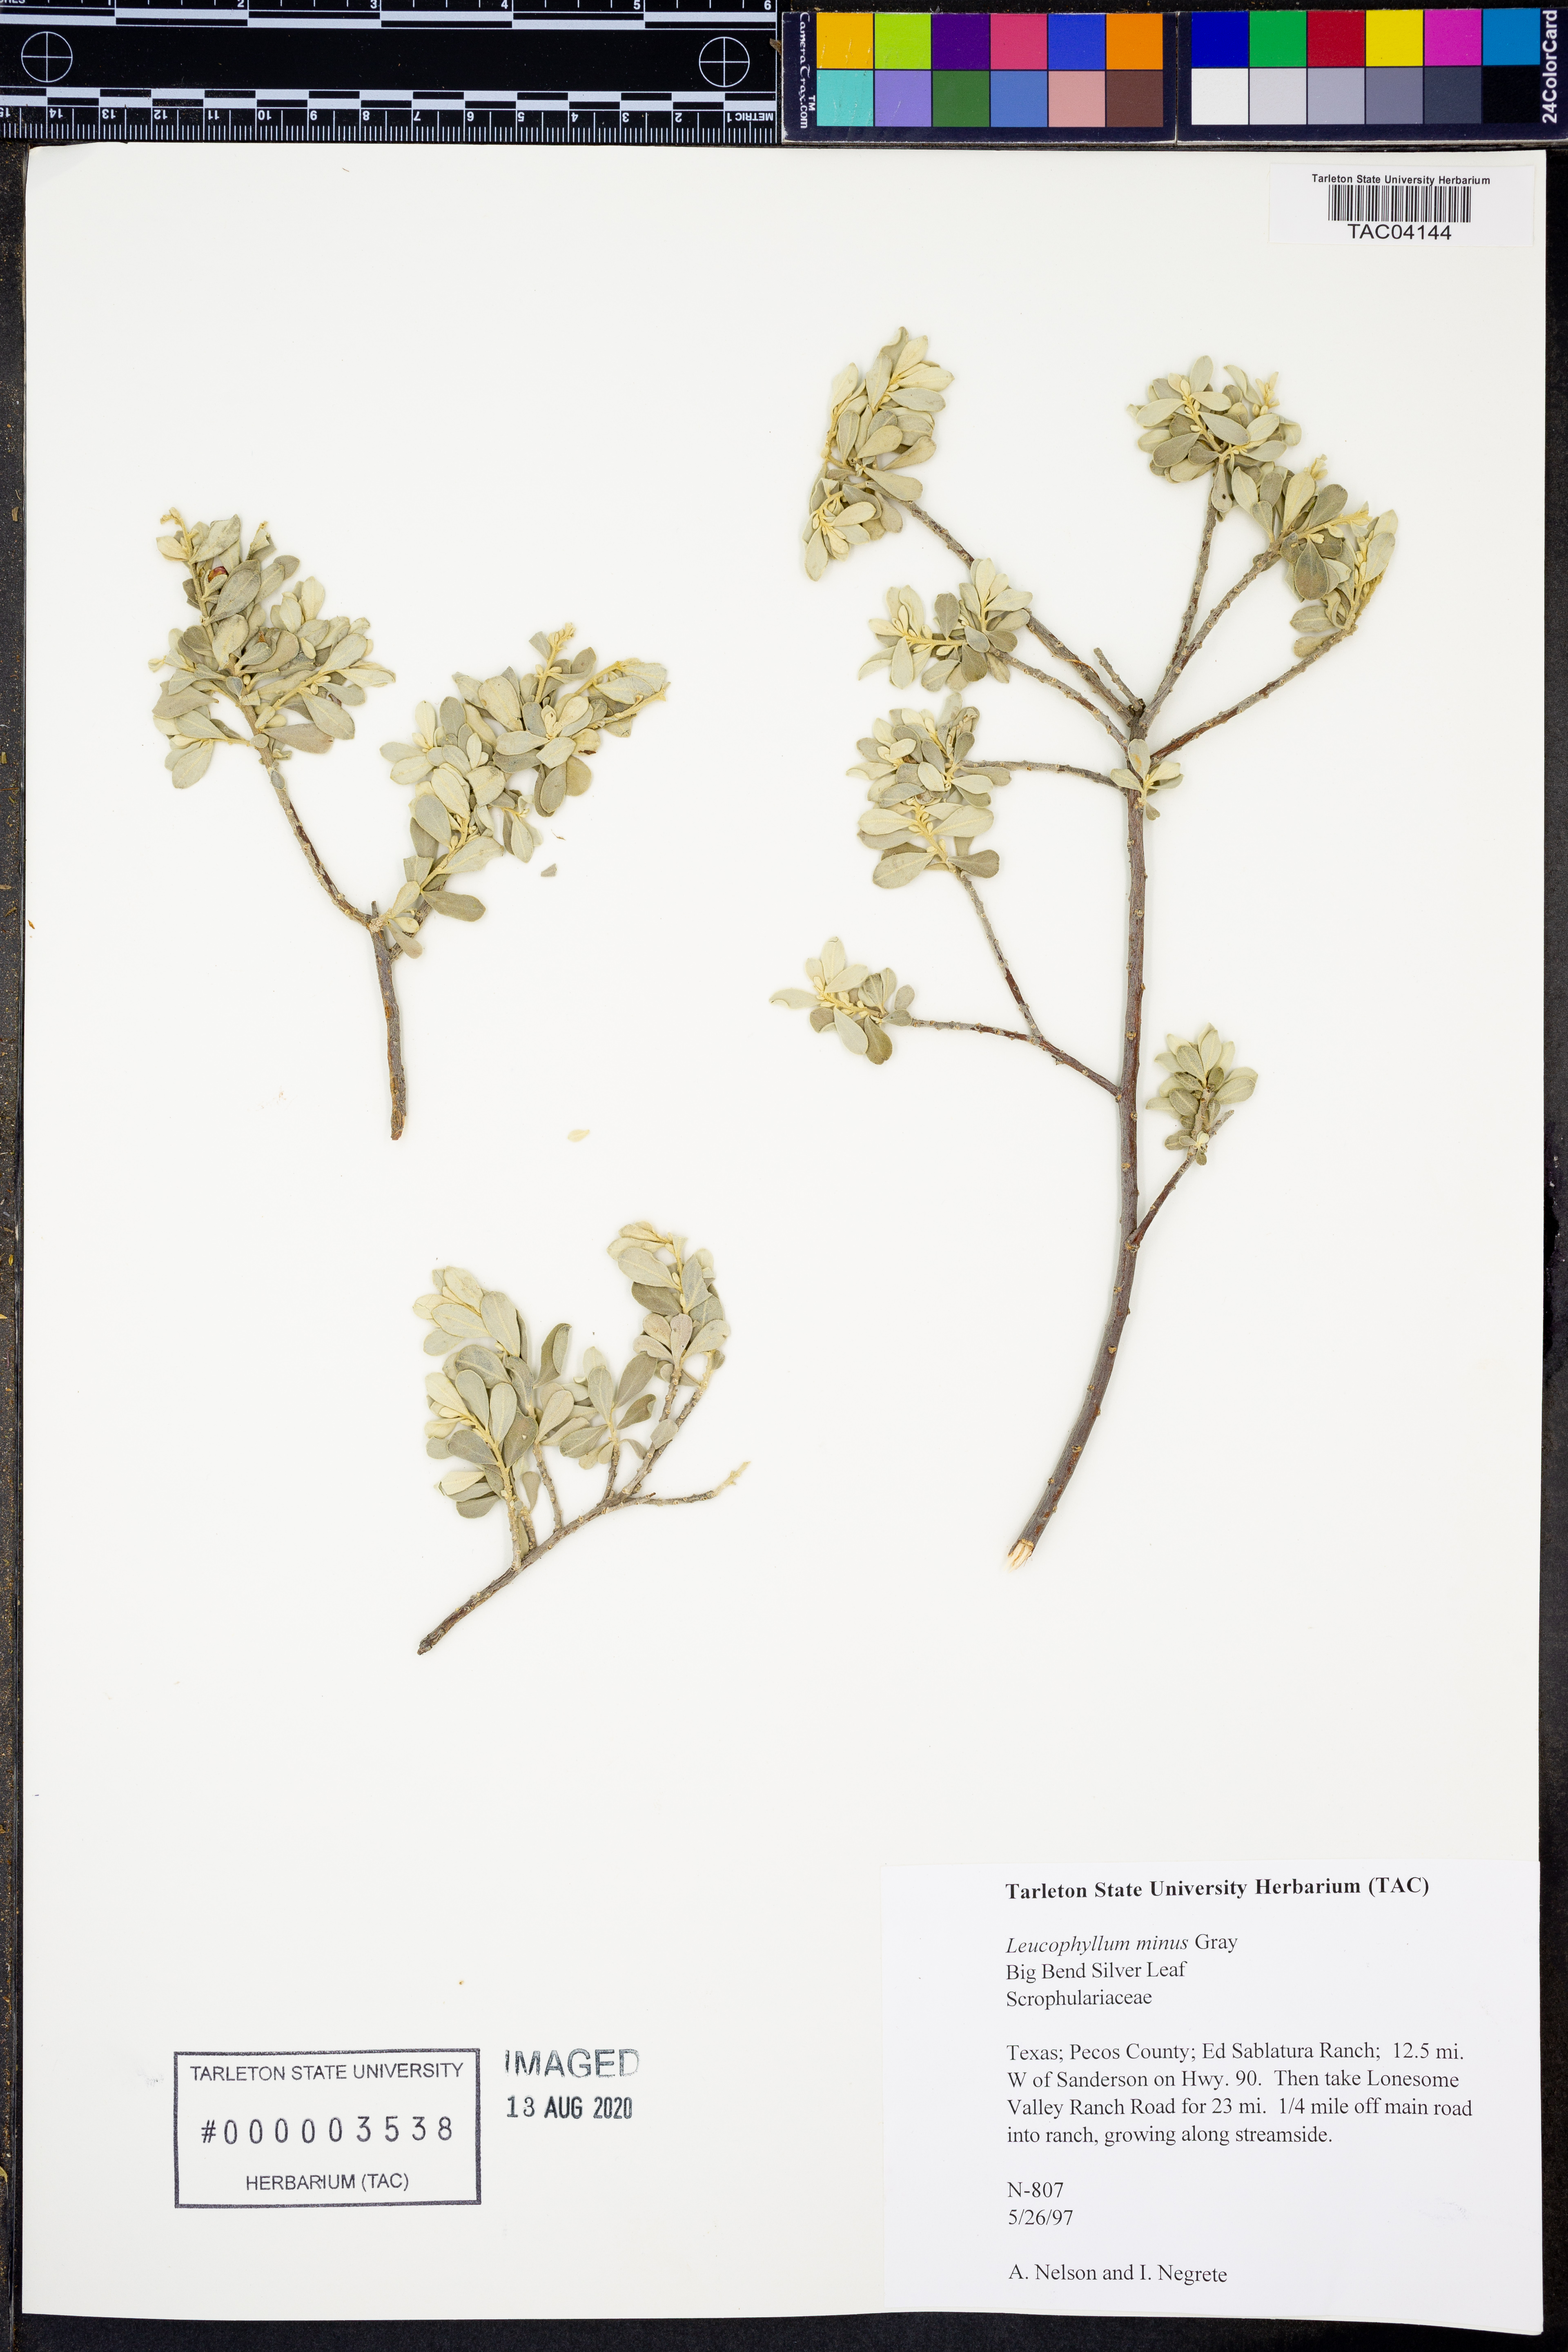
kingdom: Plantae
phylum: Tracheophyta
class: Magnoliopsida
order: Lamiales
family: Scrophulariaceae
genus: Leucophyllum
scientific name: Leucophyllum minus
